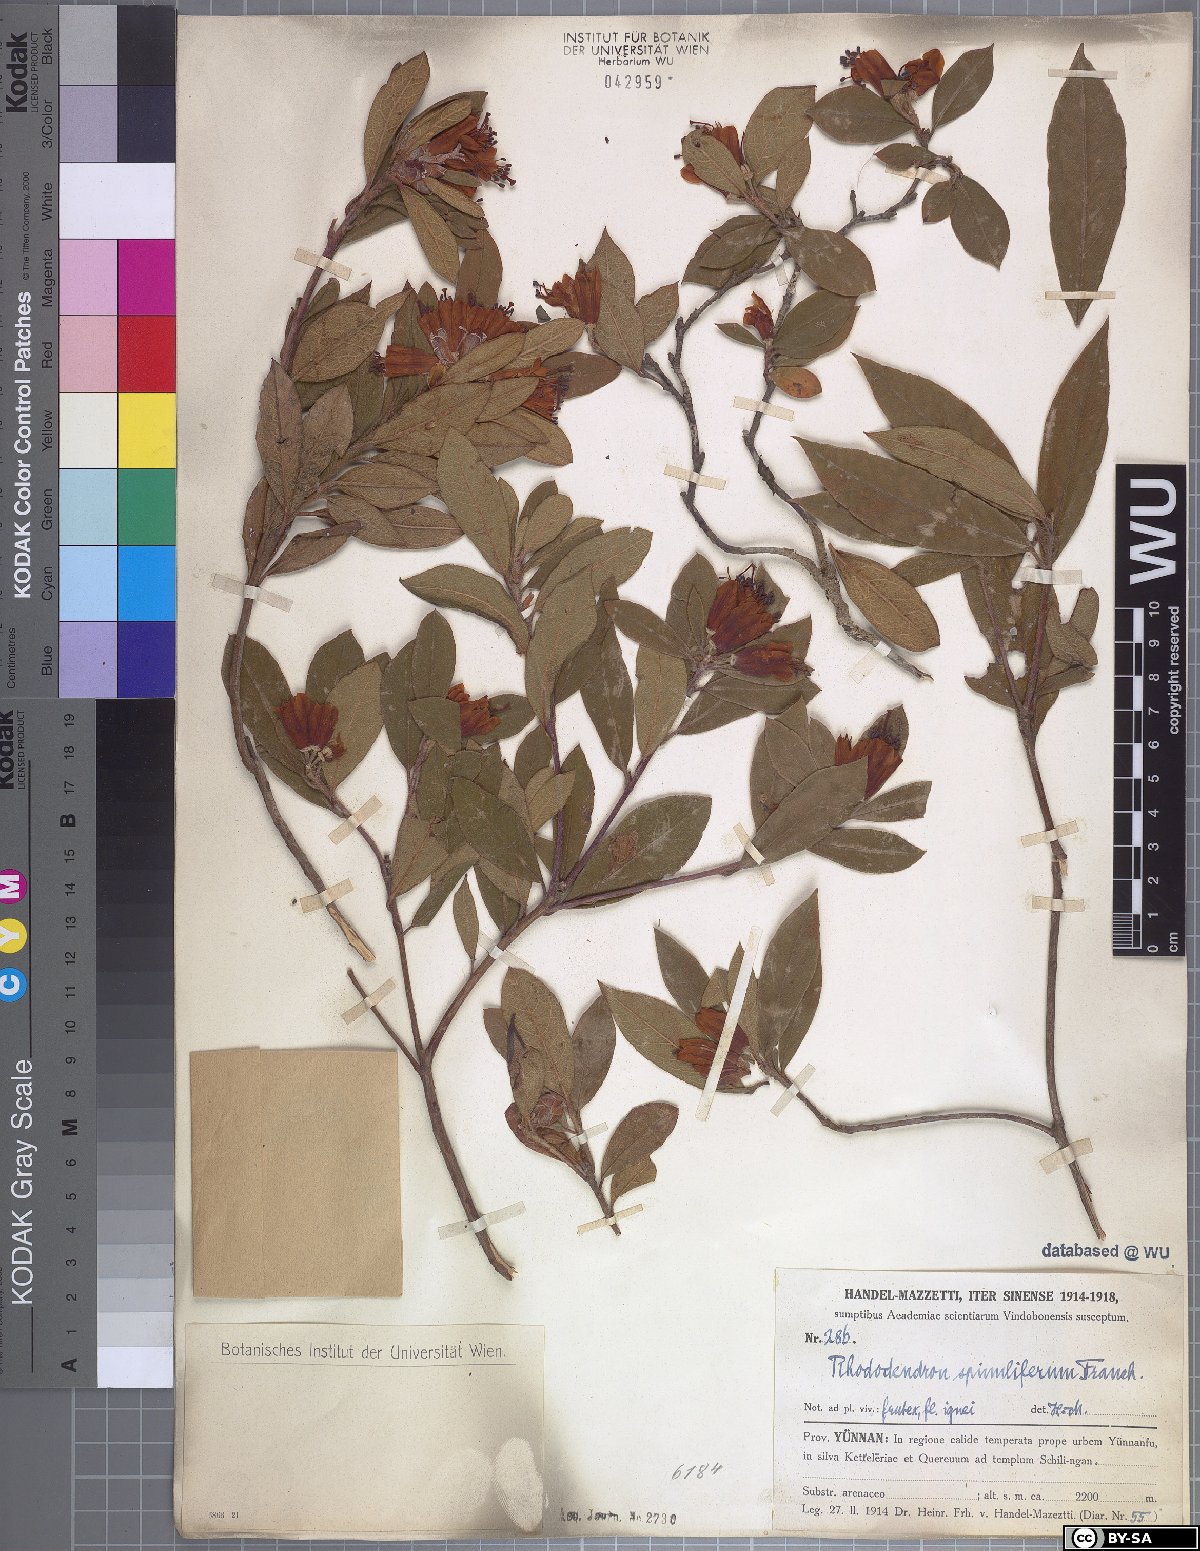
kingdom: Plantae
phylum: Tracheophyta
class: Magnoliopsida
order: Ericales
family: Ericaceae
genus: Rhododendron
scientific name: Rhododendron spinuliferum
